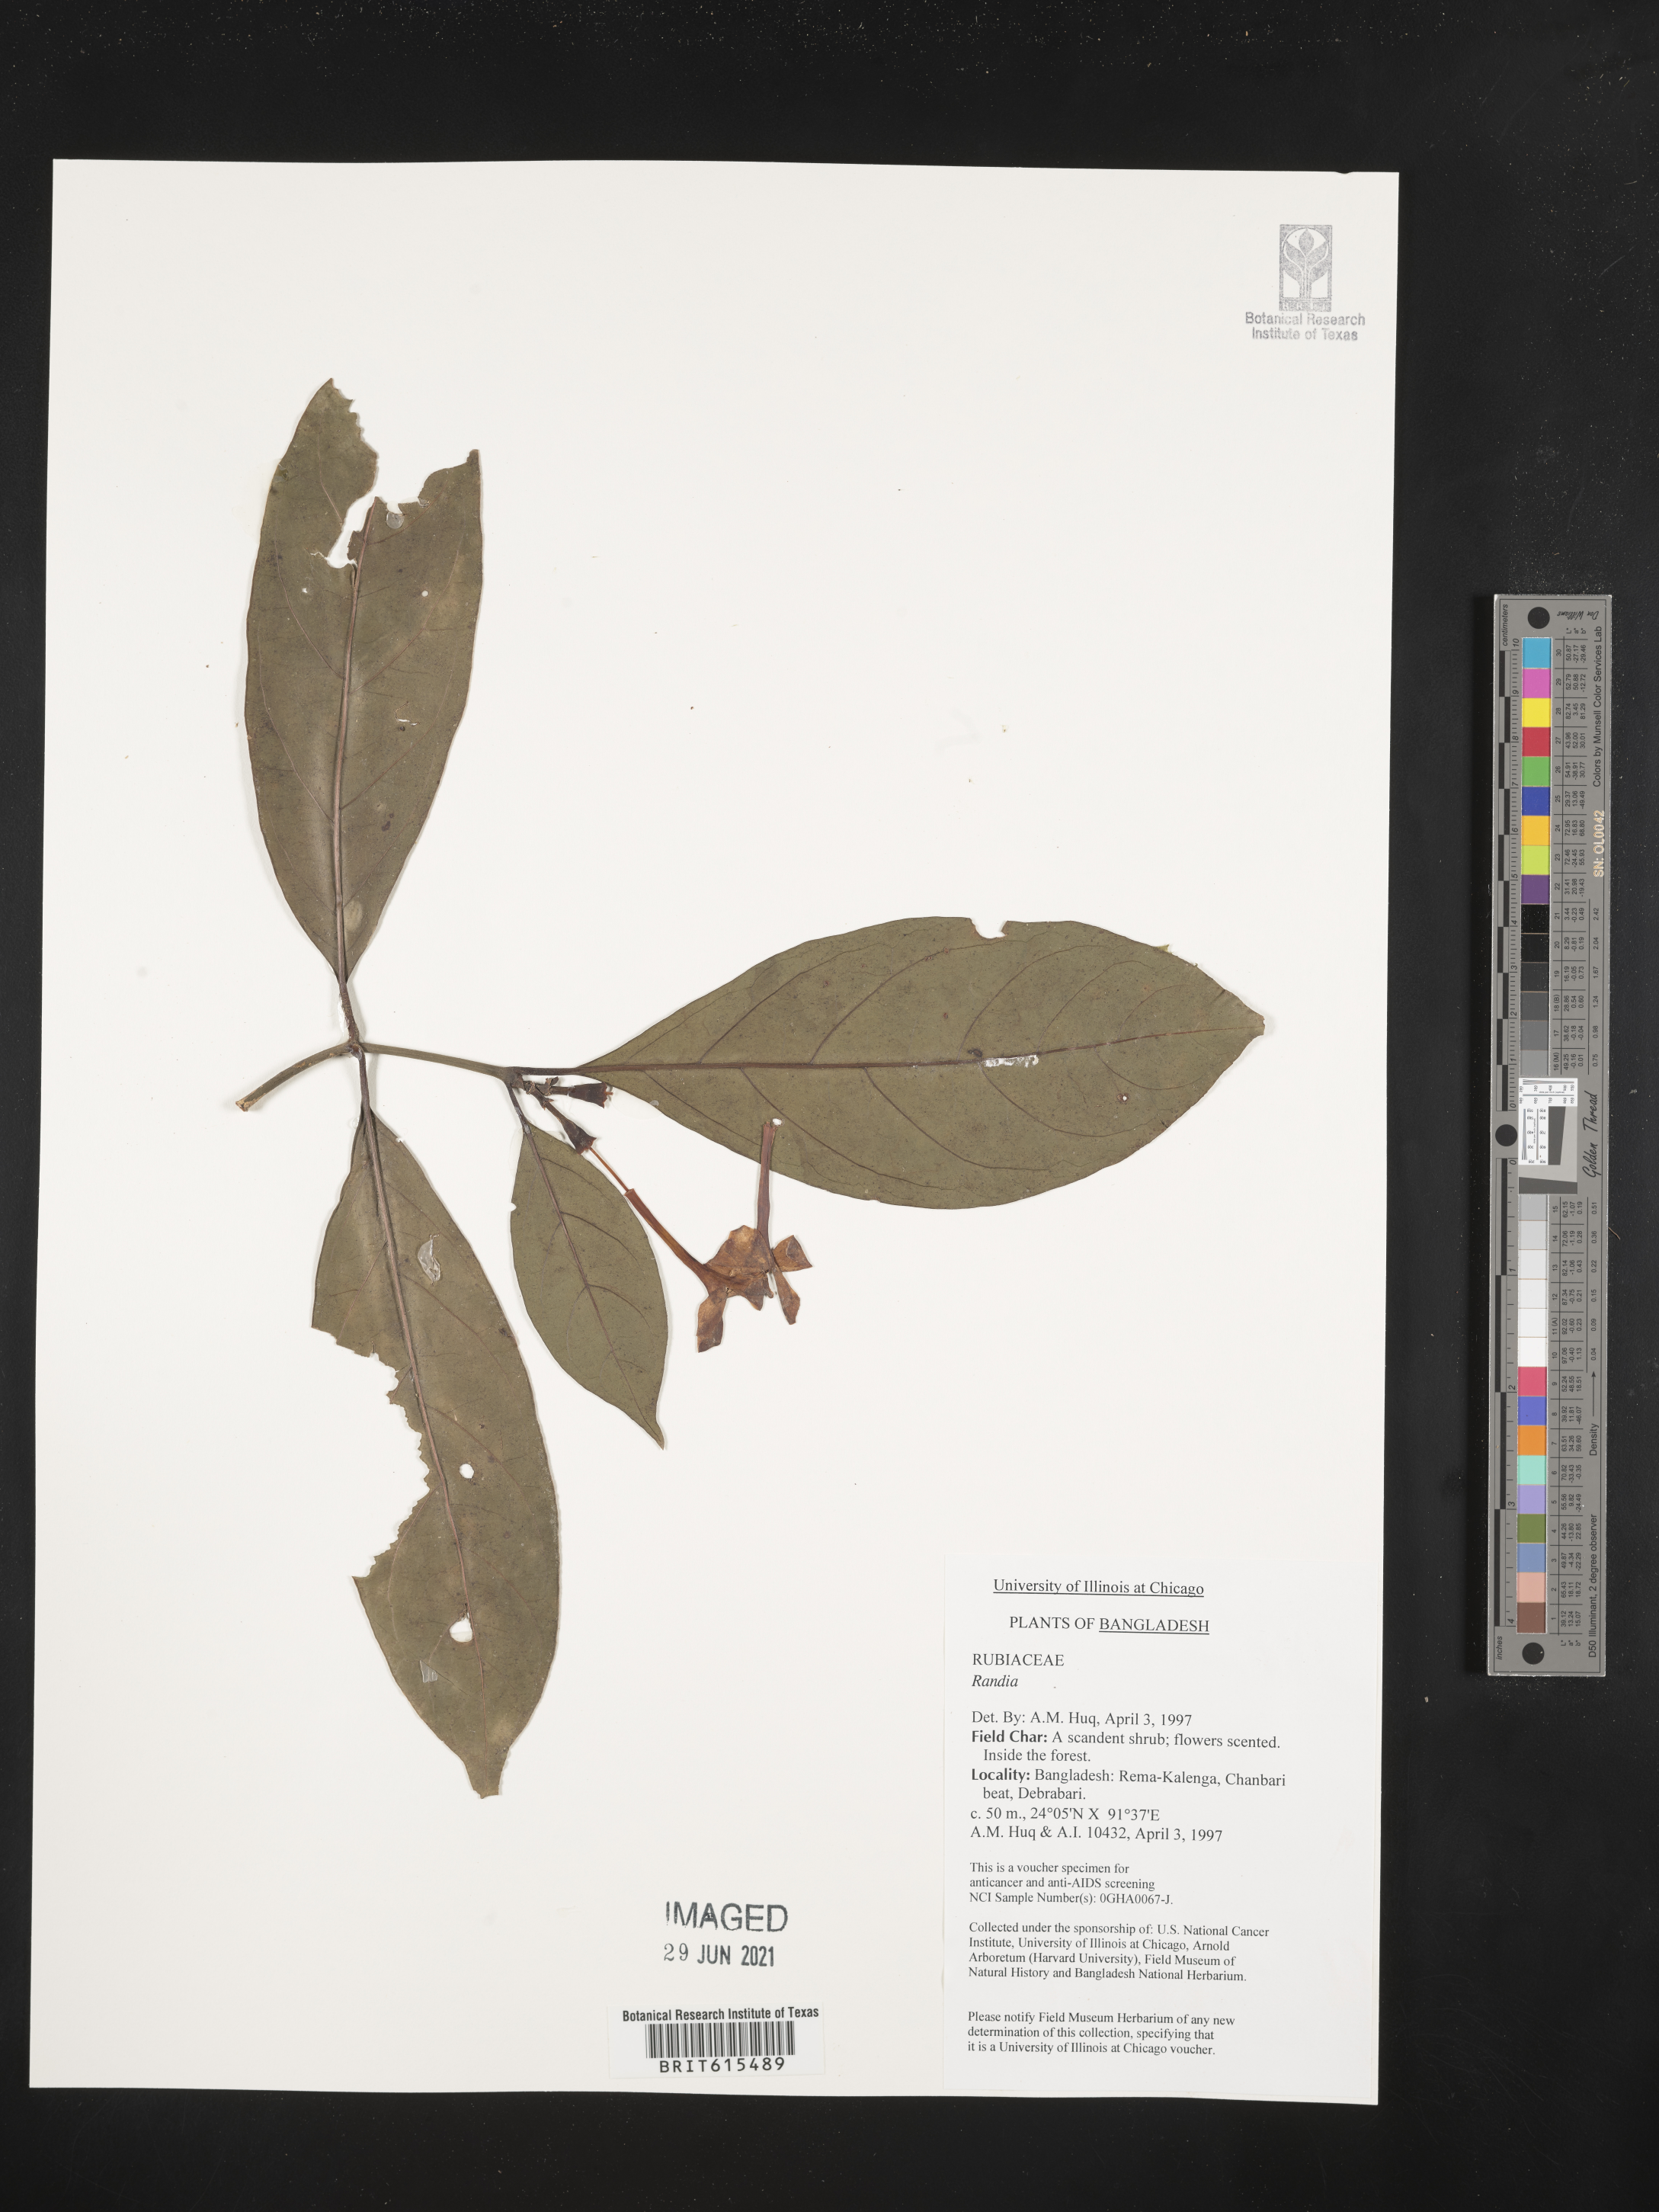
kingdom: Plantae
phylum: Tracheophyta
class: Magnoliopsida
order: Gentianales
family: Rubiaceae
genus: Randia
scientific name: Randia
